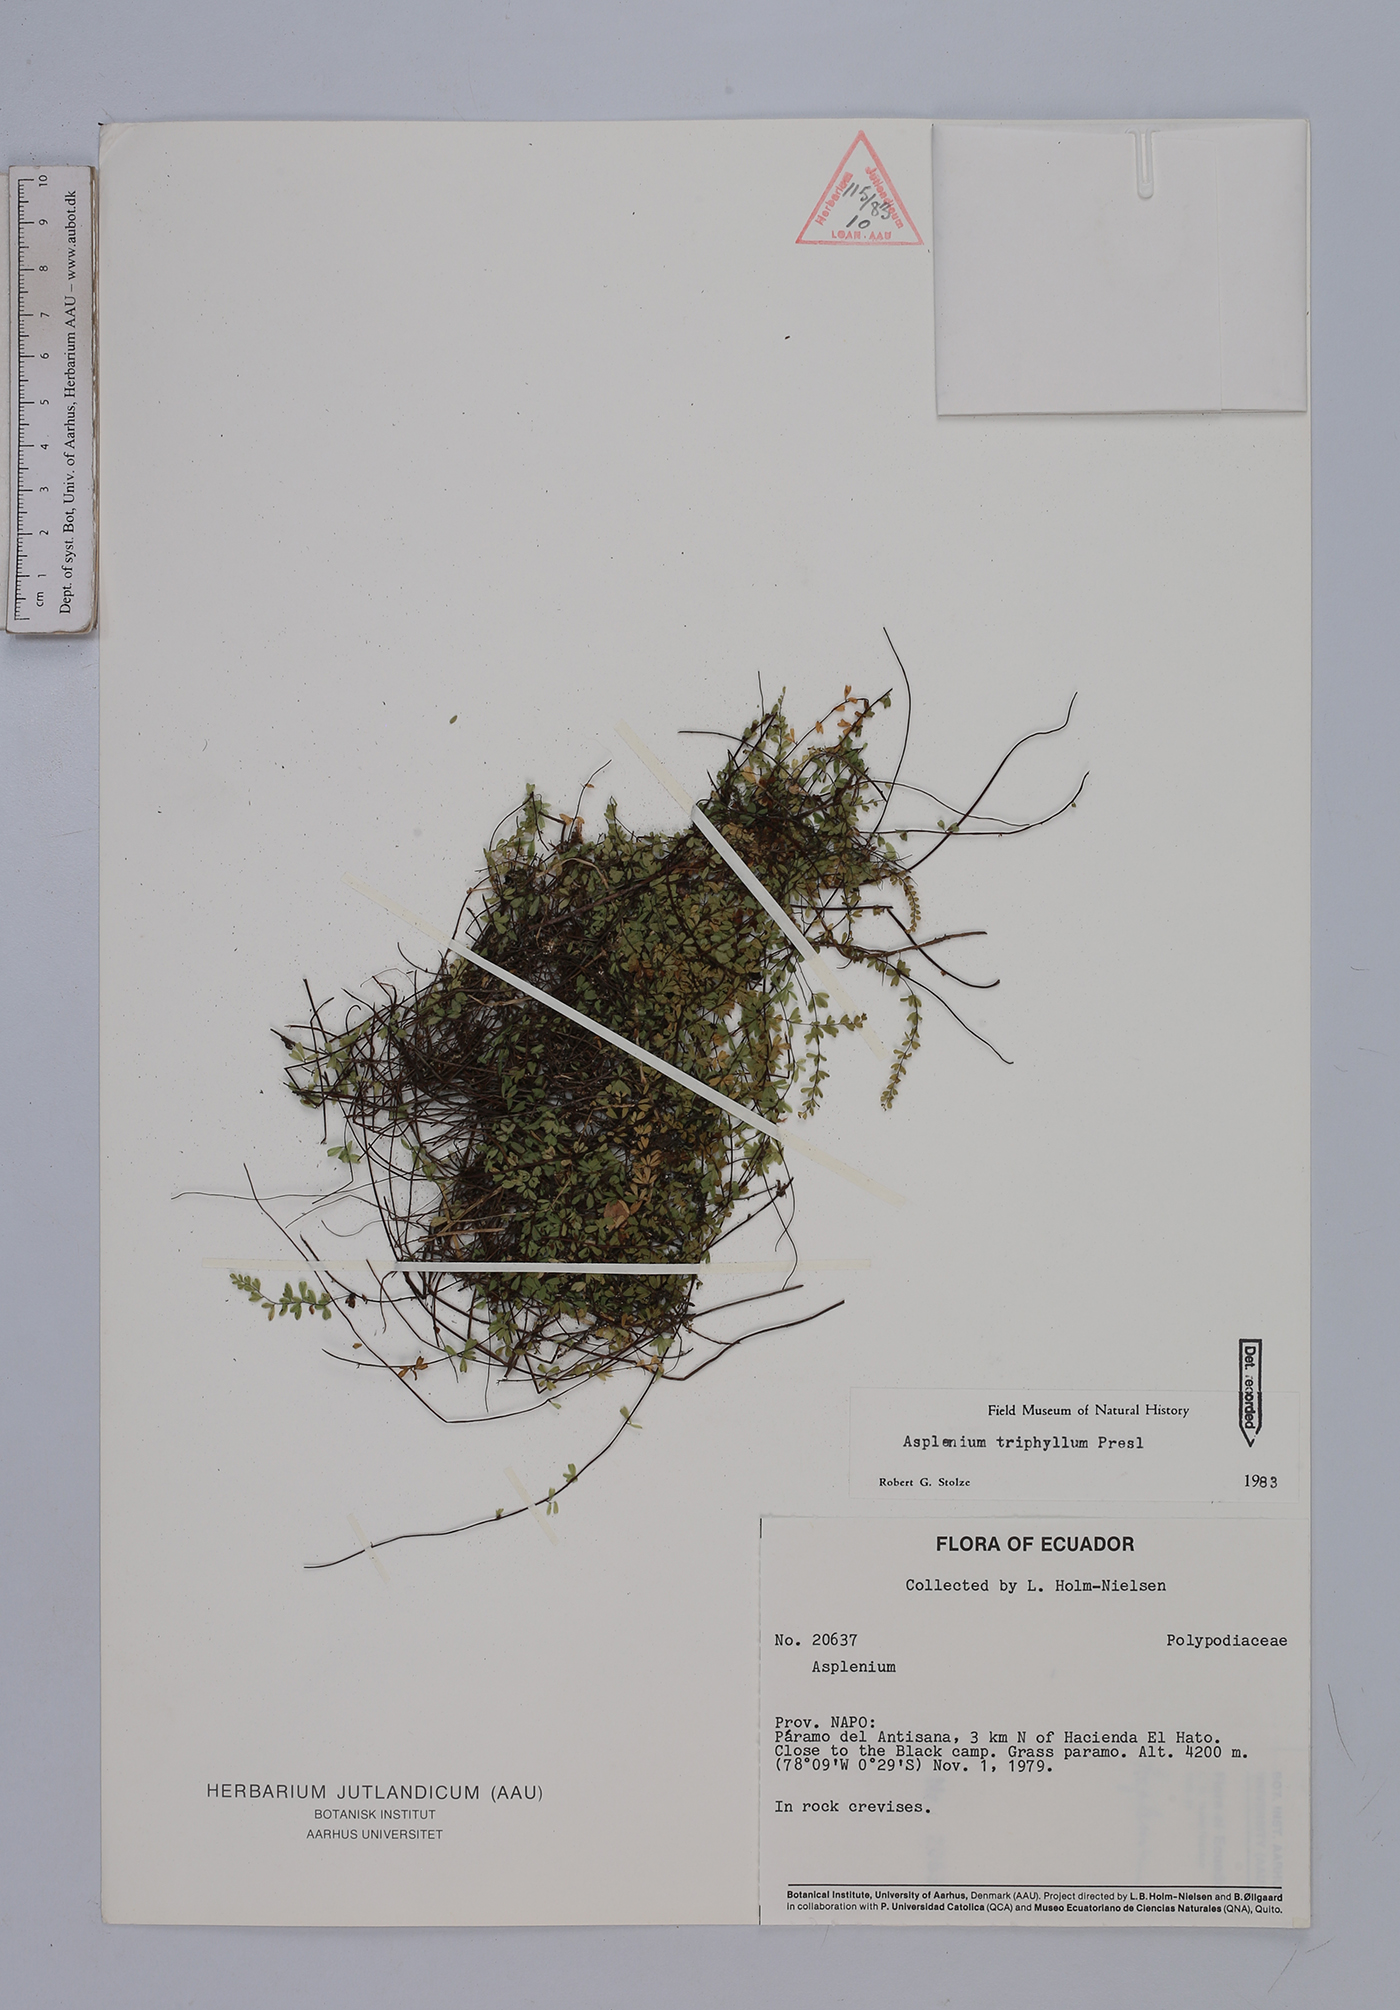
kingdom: Plantae
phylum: Tracheophyta
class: Polypodiopsida
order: Polypodiales
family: Aspleniaceae
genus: Asplenium
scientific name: Asplenium triphyllum
